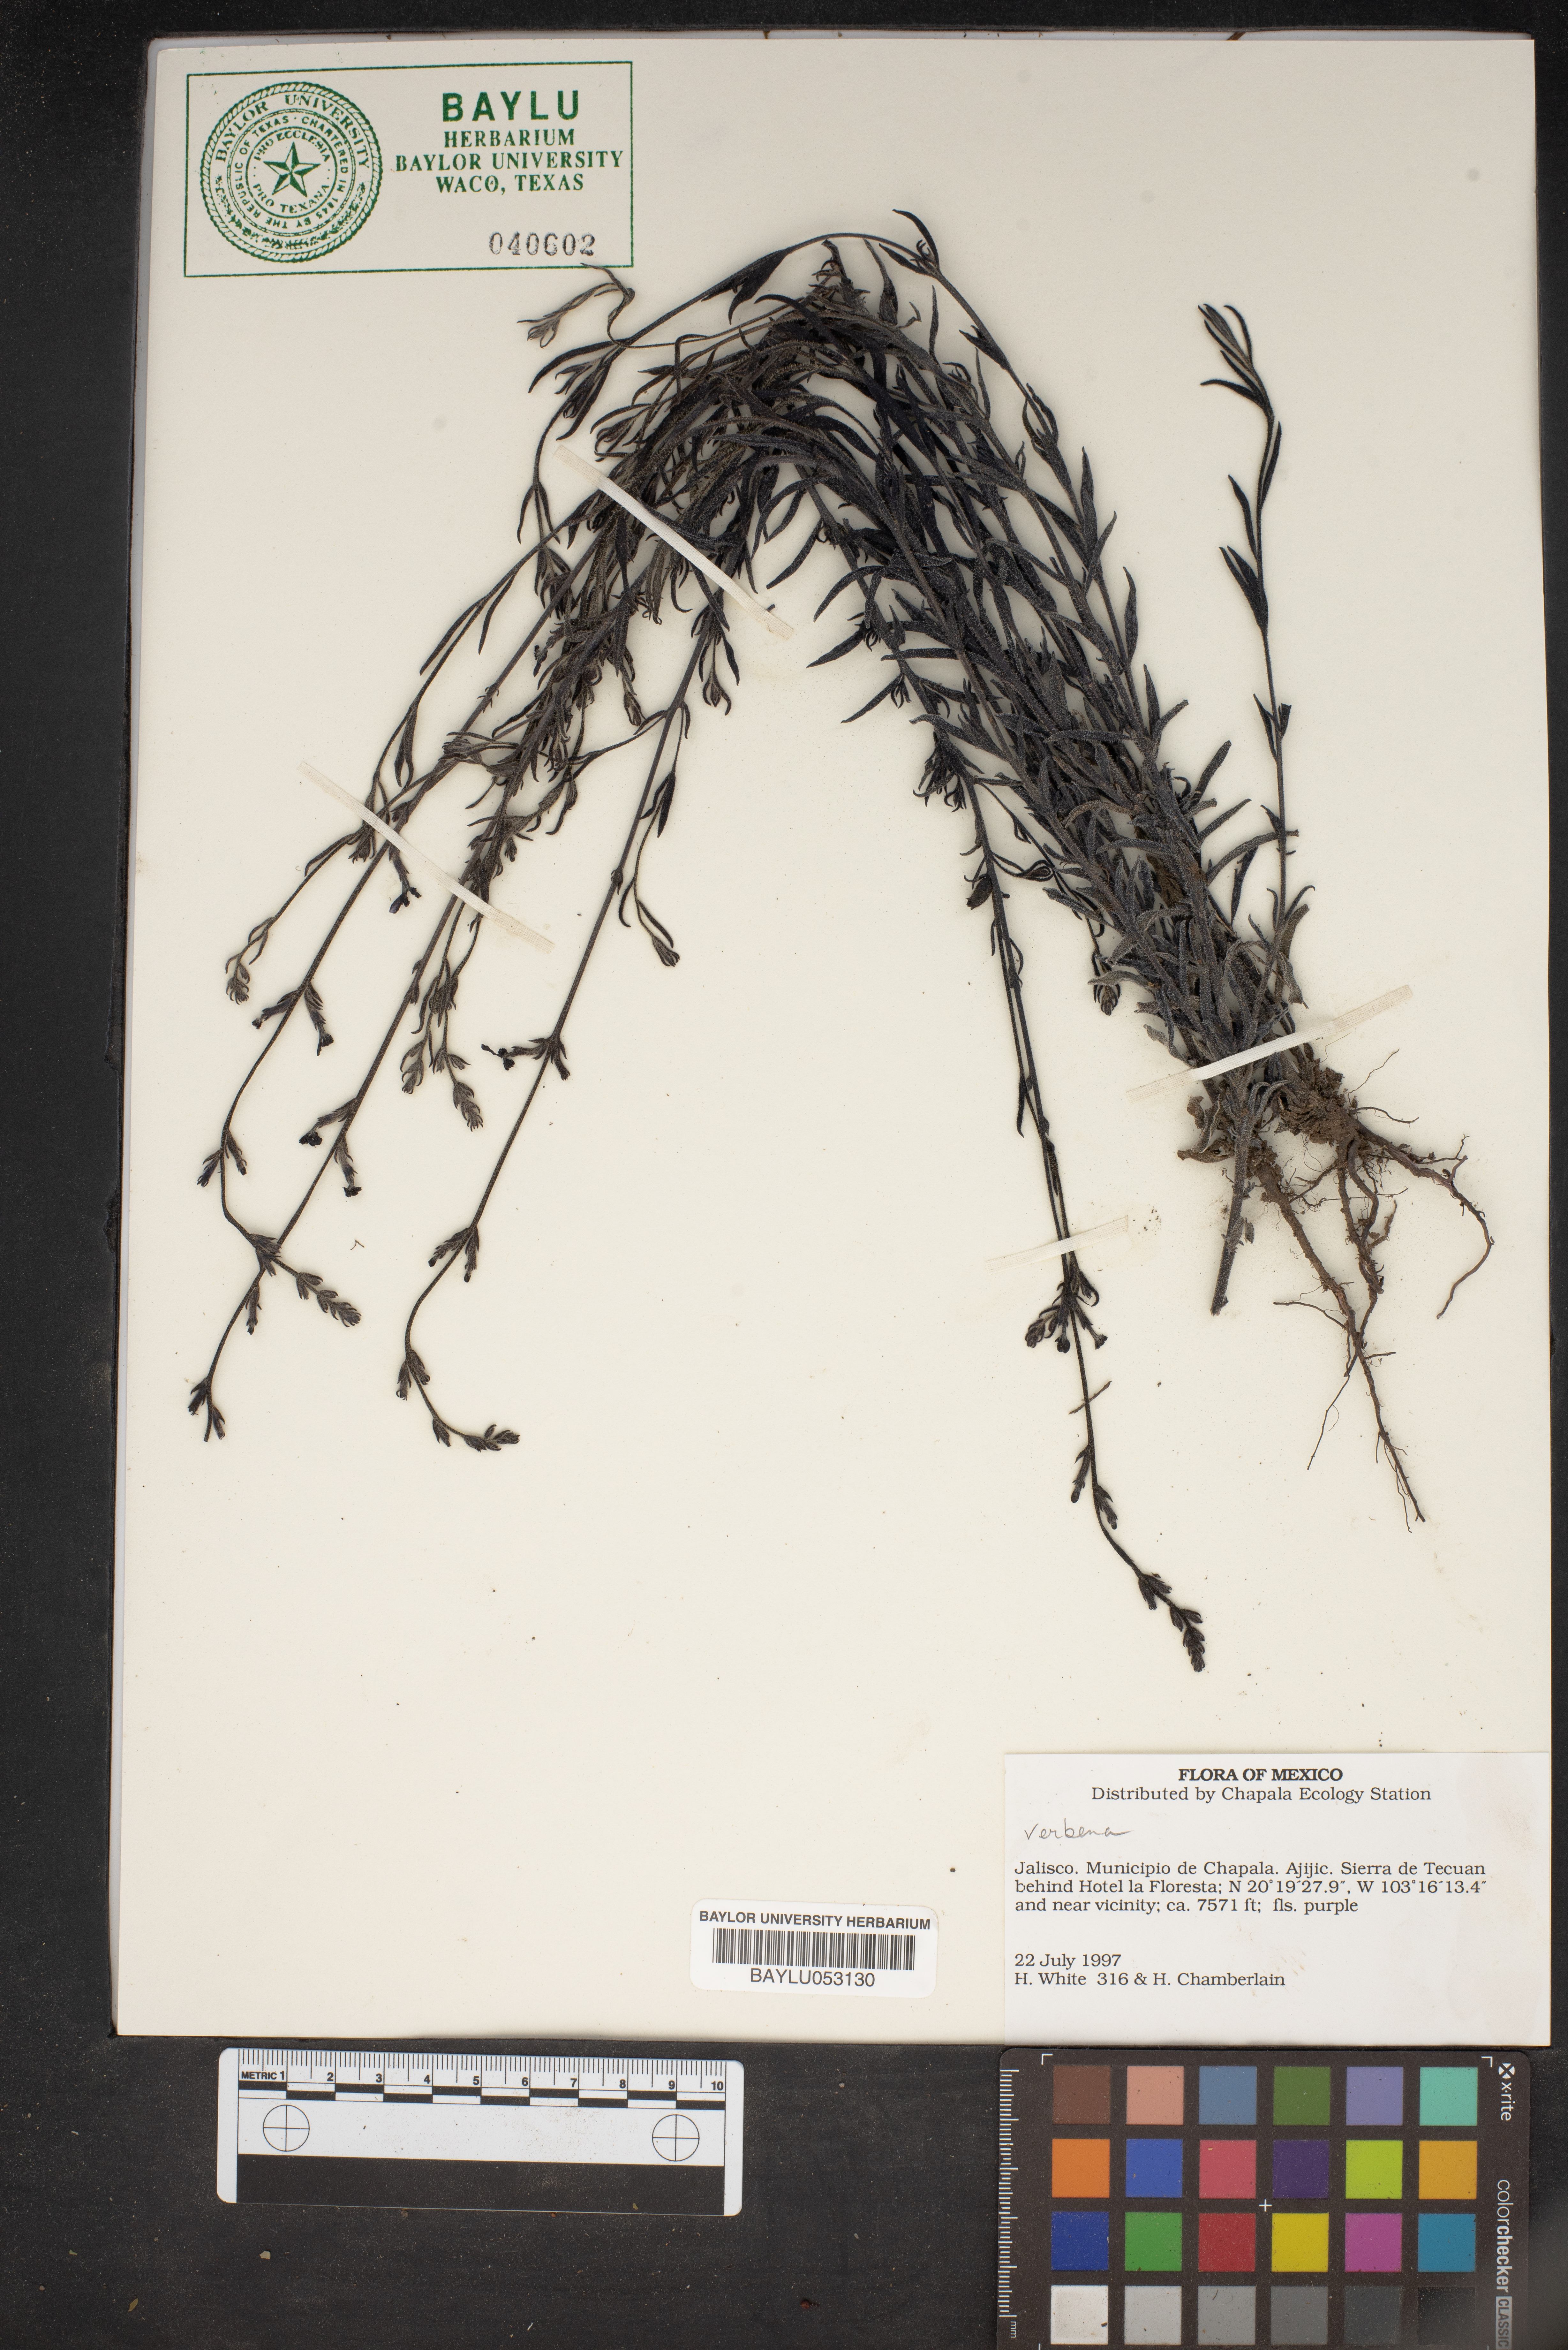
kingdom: Plantae
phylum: Tracheophyta
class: Magnoliopsida
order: Lamiales
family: Verbenaceae
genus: Verbena
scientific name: Verbena
